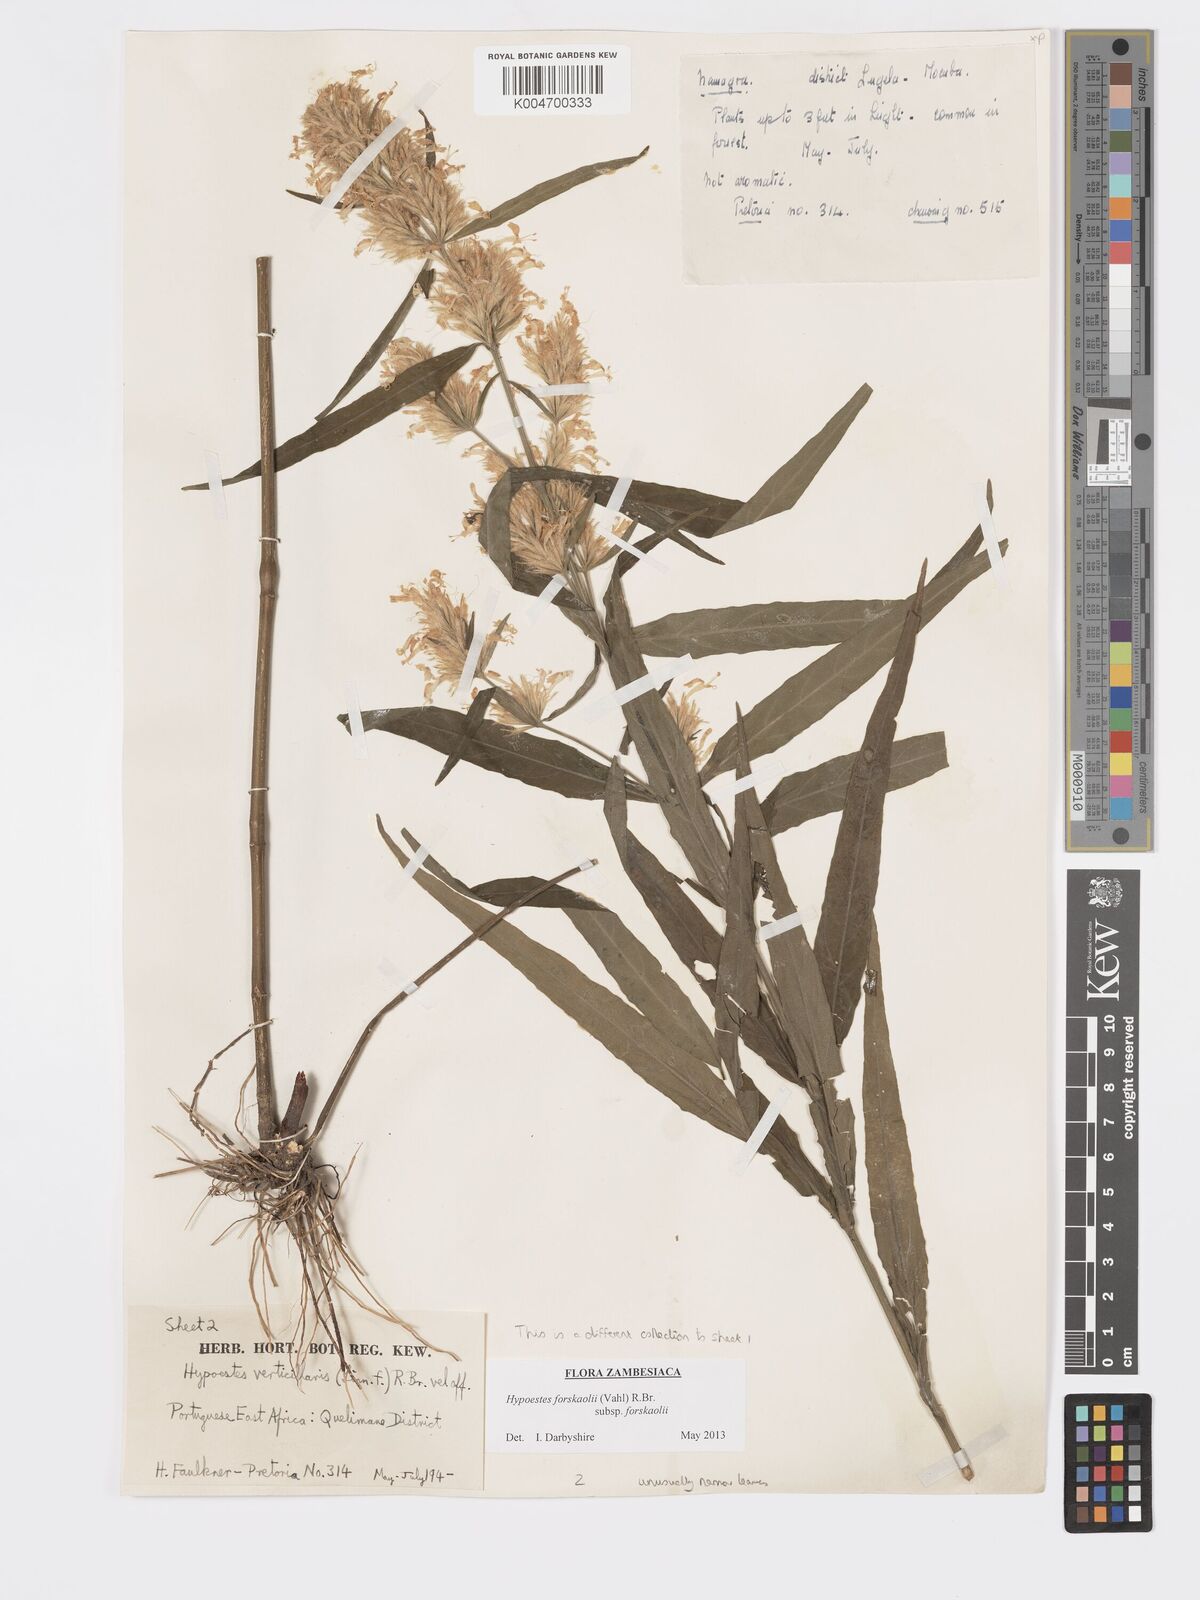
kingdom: Plantae
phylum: Tracheophyta
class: Magnoliopsida
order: Lamiales
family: Acanthaceae
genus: Hypoestes
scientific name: Hypoestes forskaolii
